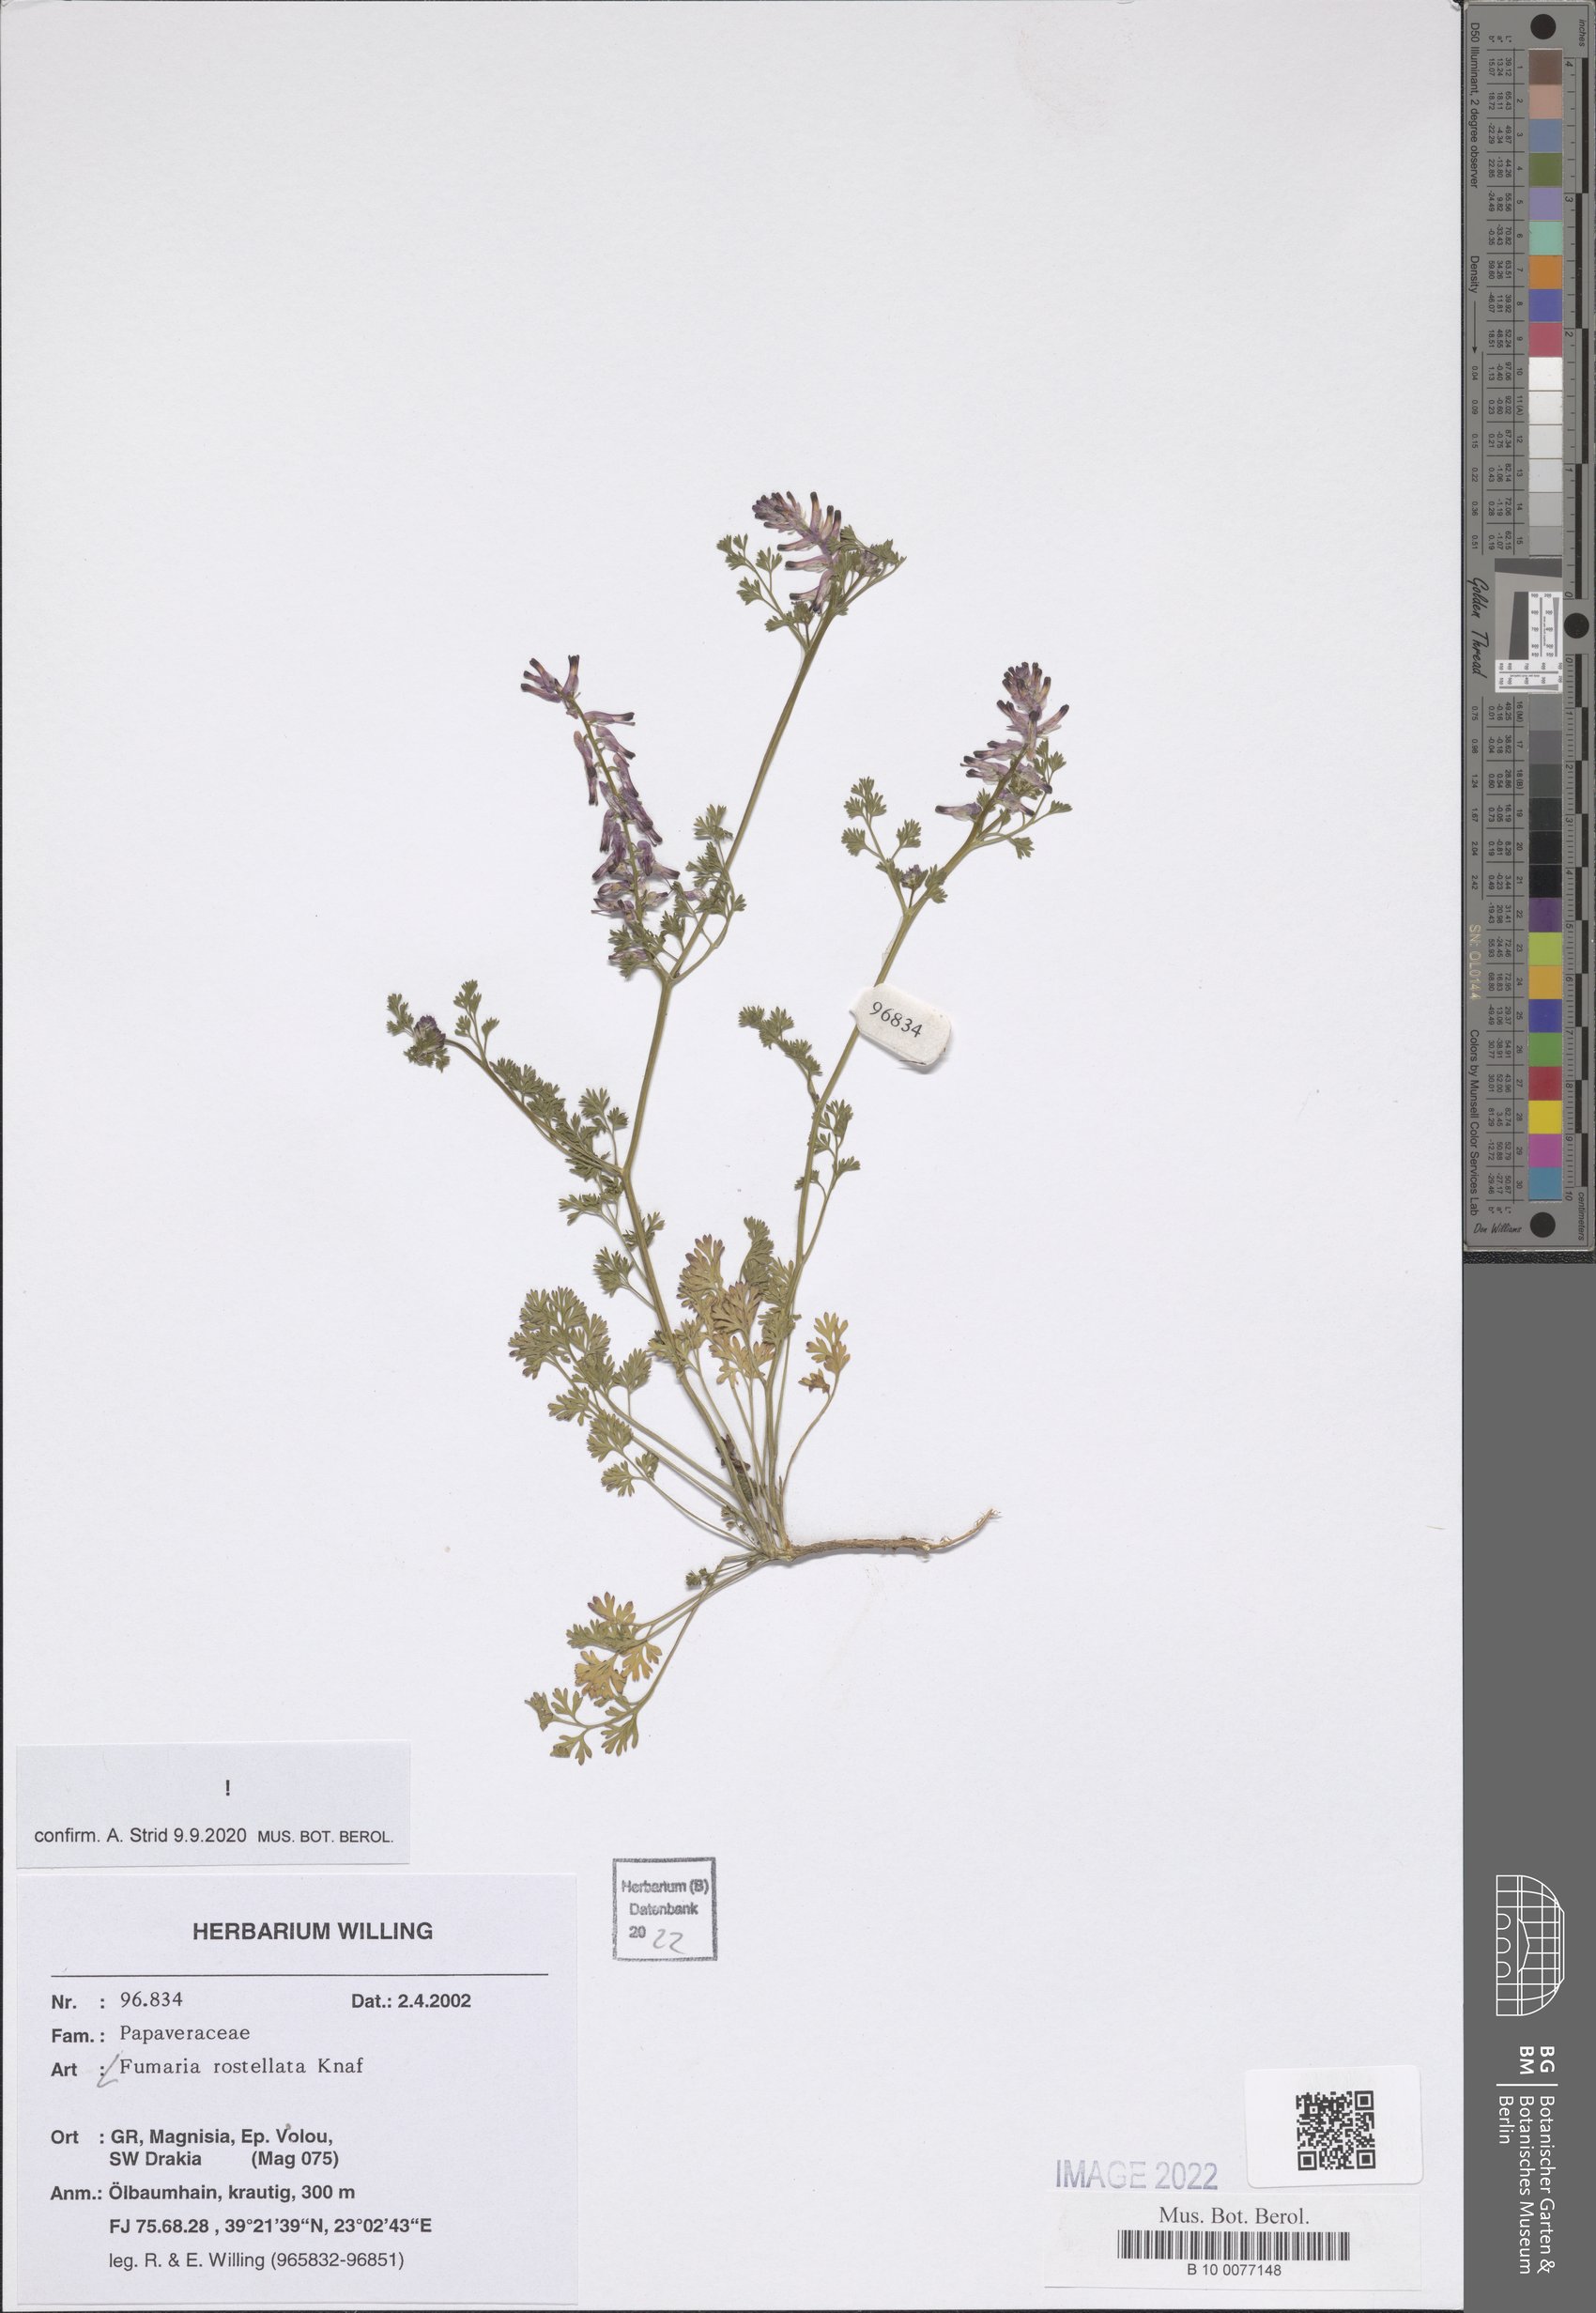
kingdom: Plantae
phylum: Tracheophyta
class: Magnoliopsida
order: Ranunculales
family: Papaveraceae
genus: Fumaria
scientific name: Fumaria rostellata
